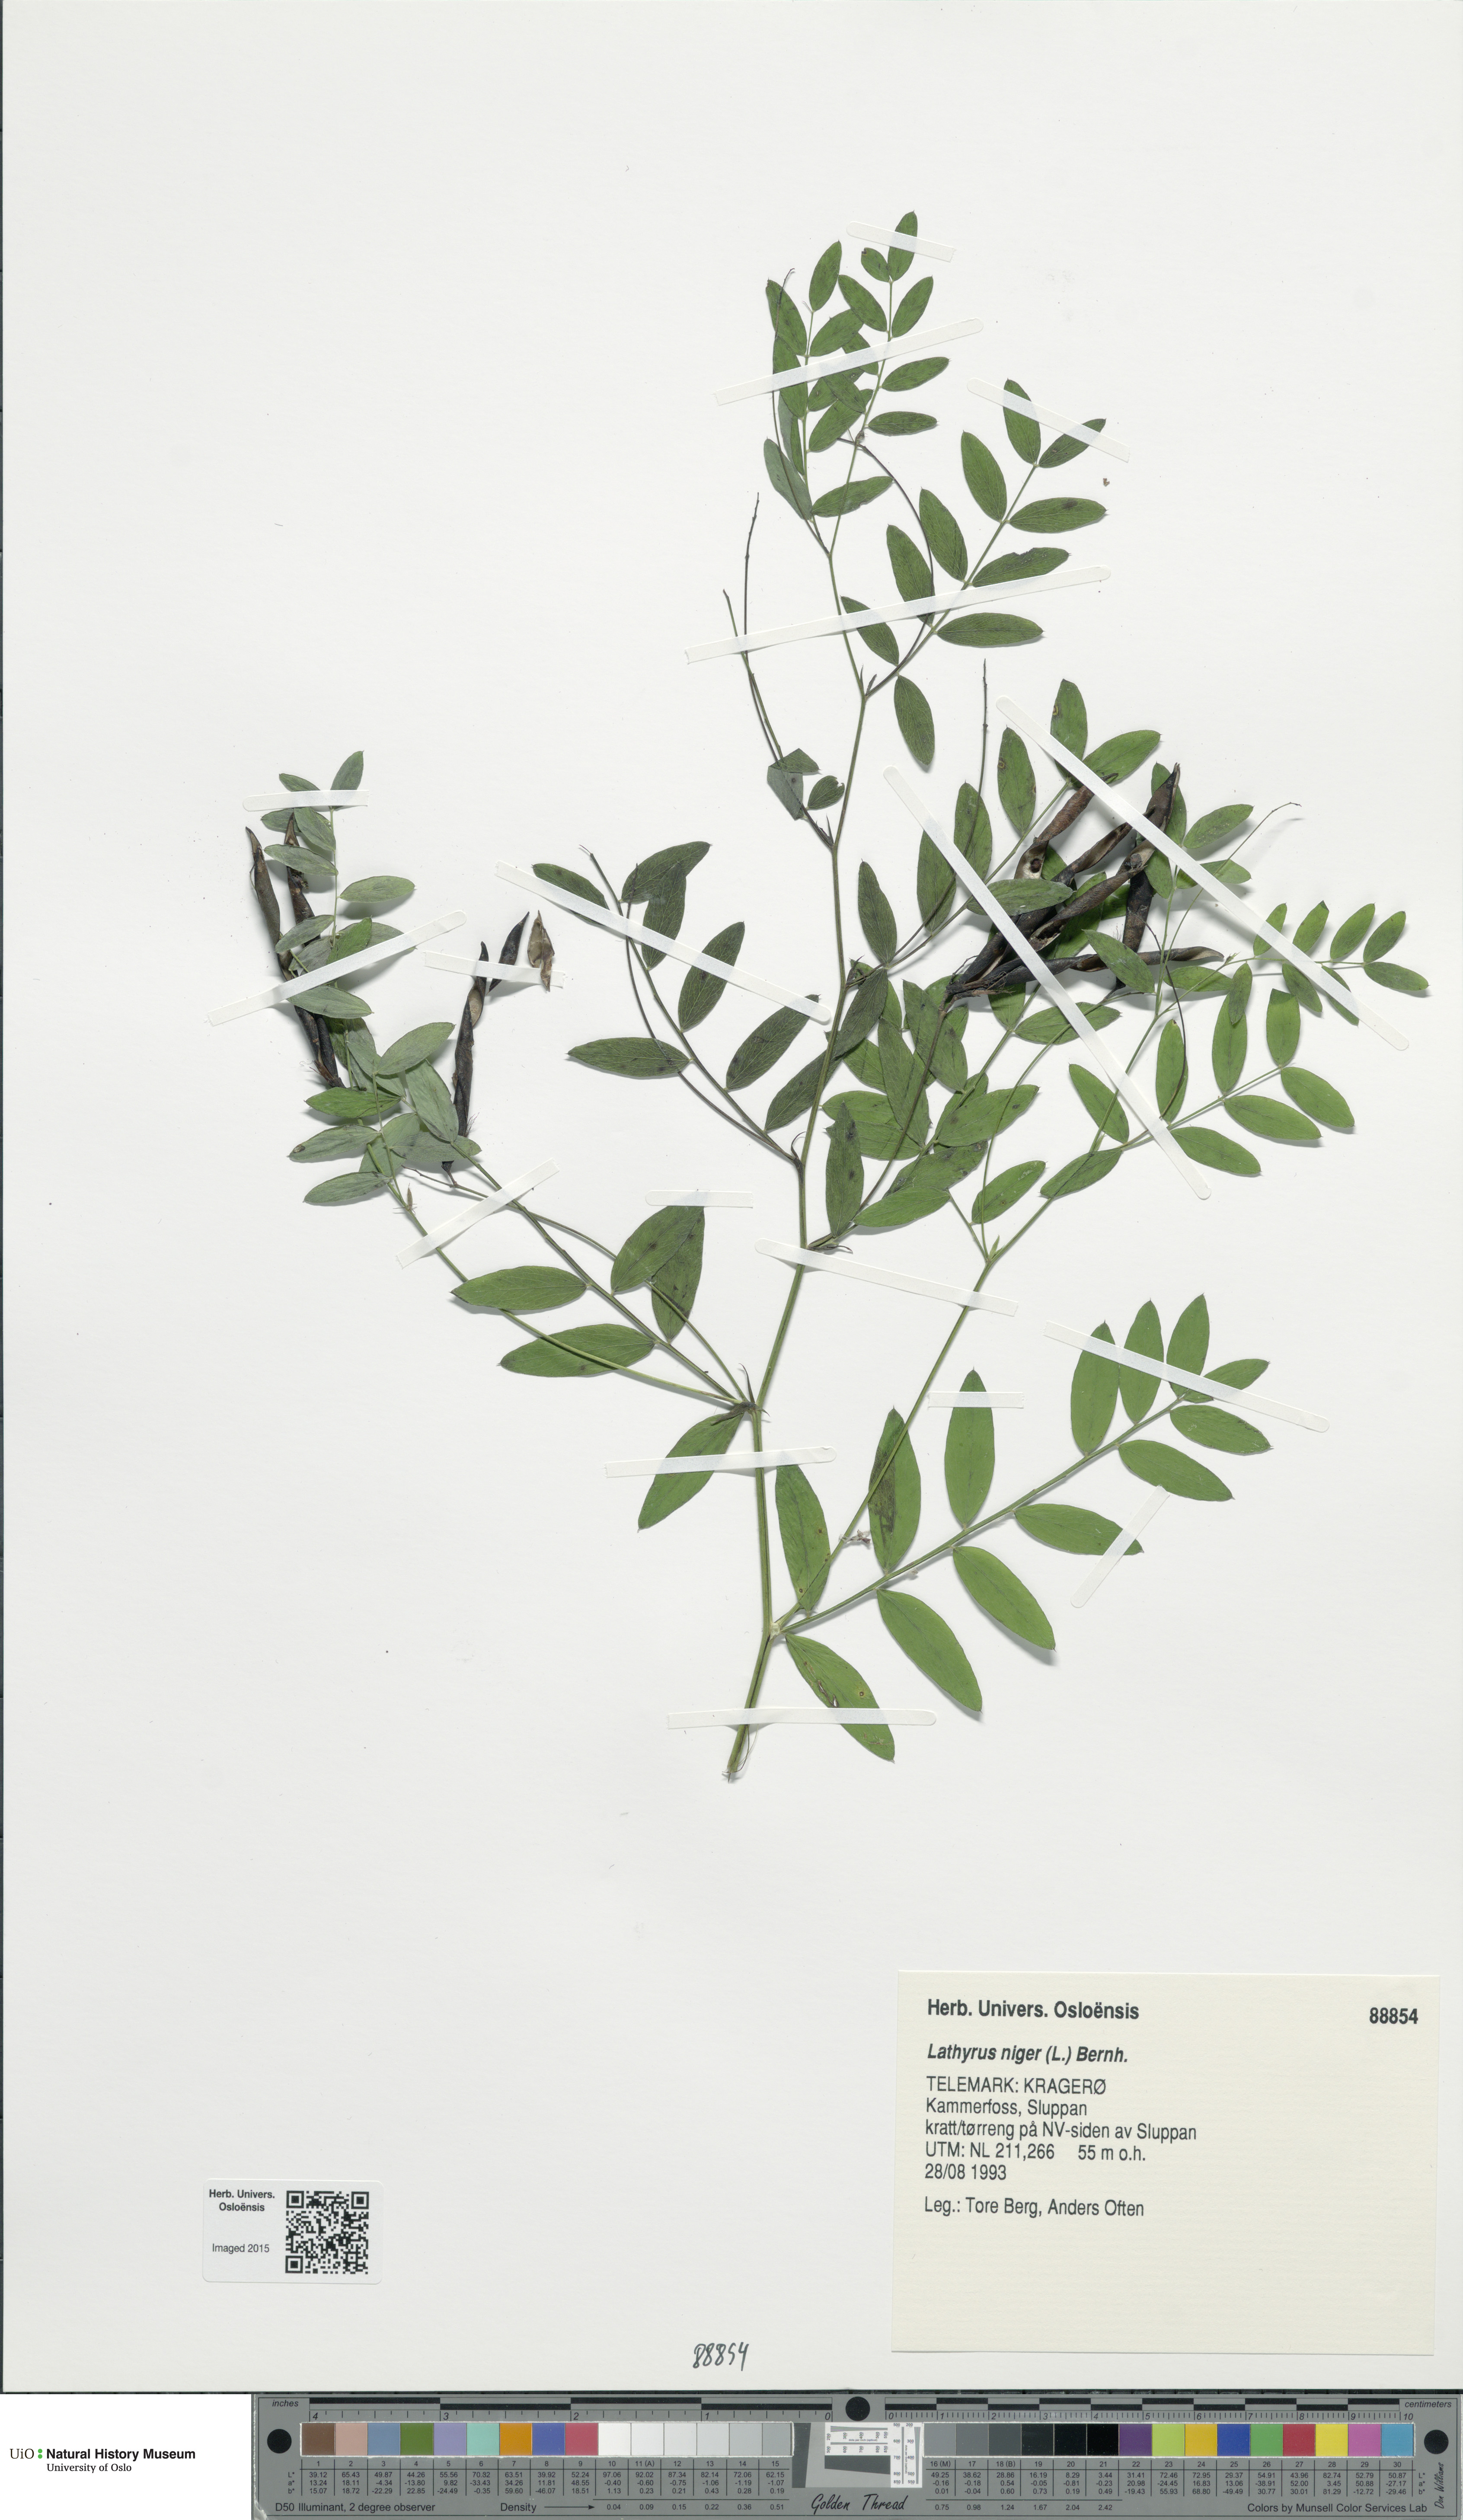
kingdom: Plantae
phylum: Tracheophyta
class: Magnoliopsida
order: Fabales
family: Fabaceae
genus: Lathyrus
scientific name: Lathyrus niger
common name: Black pea
